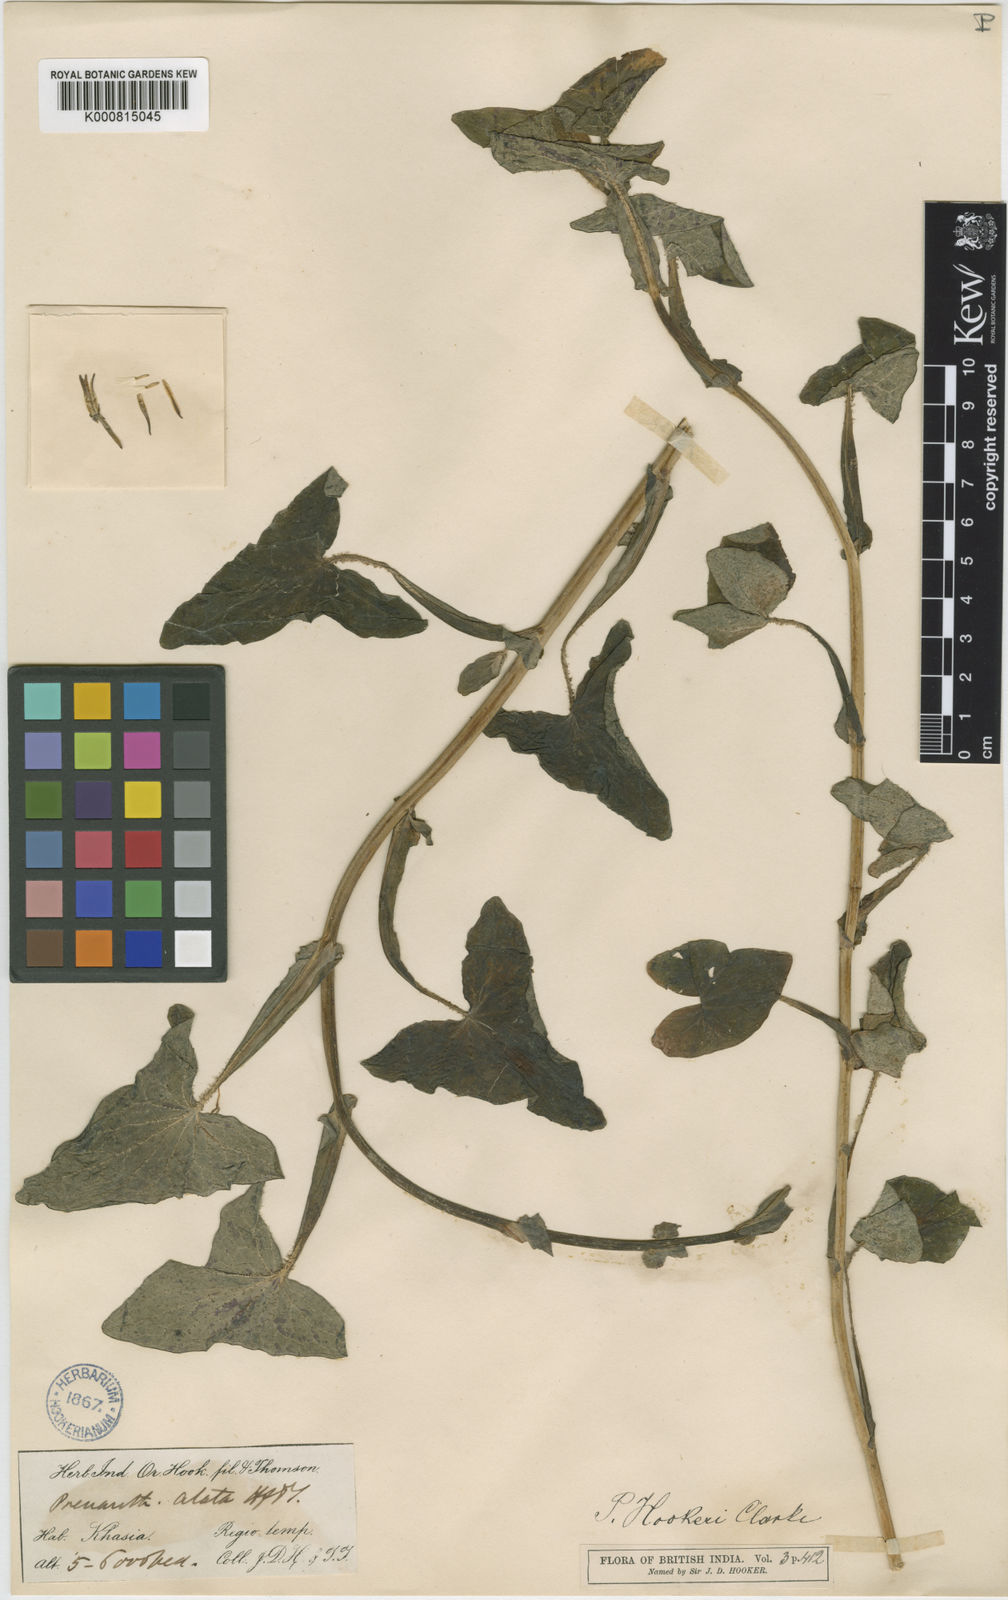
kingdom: Plantae
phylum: Tracheophyta
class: Magnoliopsida
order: Asterales
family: Asteraceae
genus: Prenanthes
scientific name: Prenanthes hookeri
